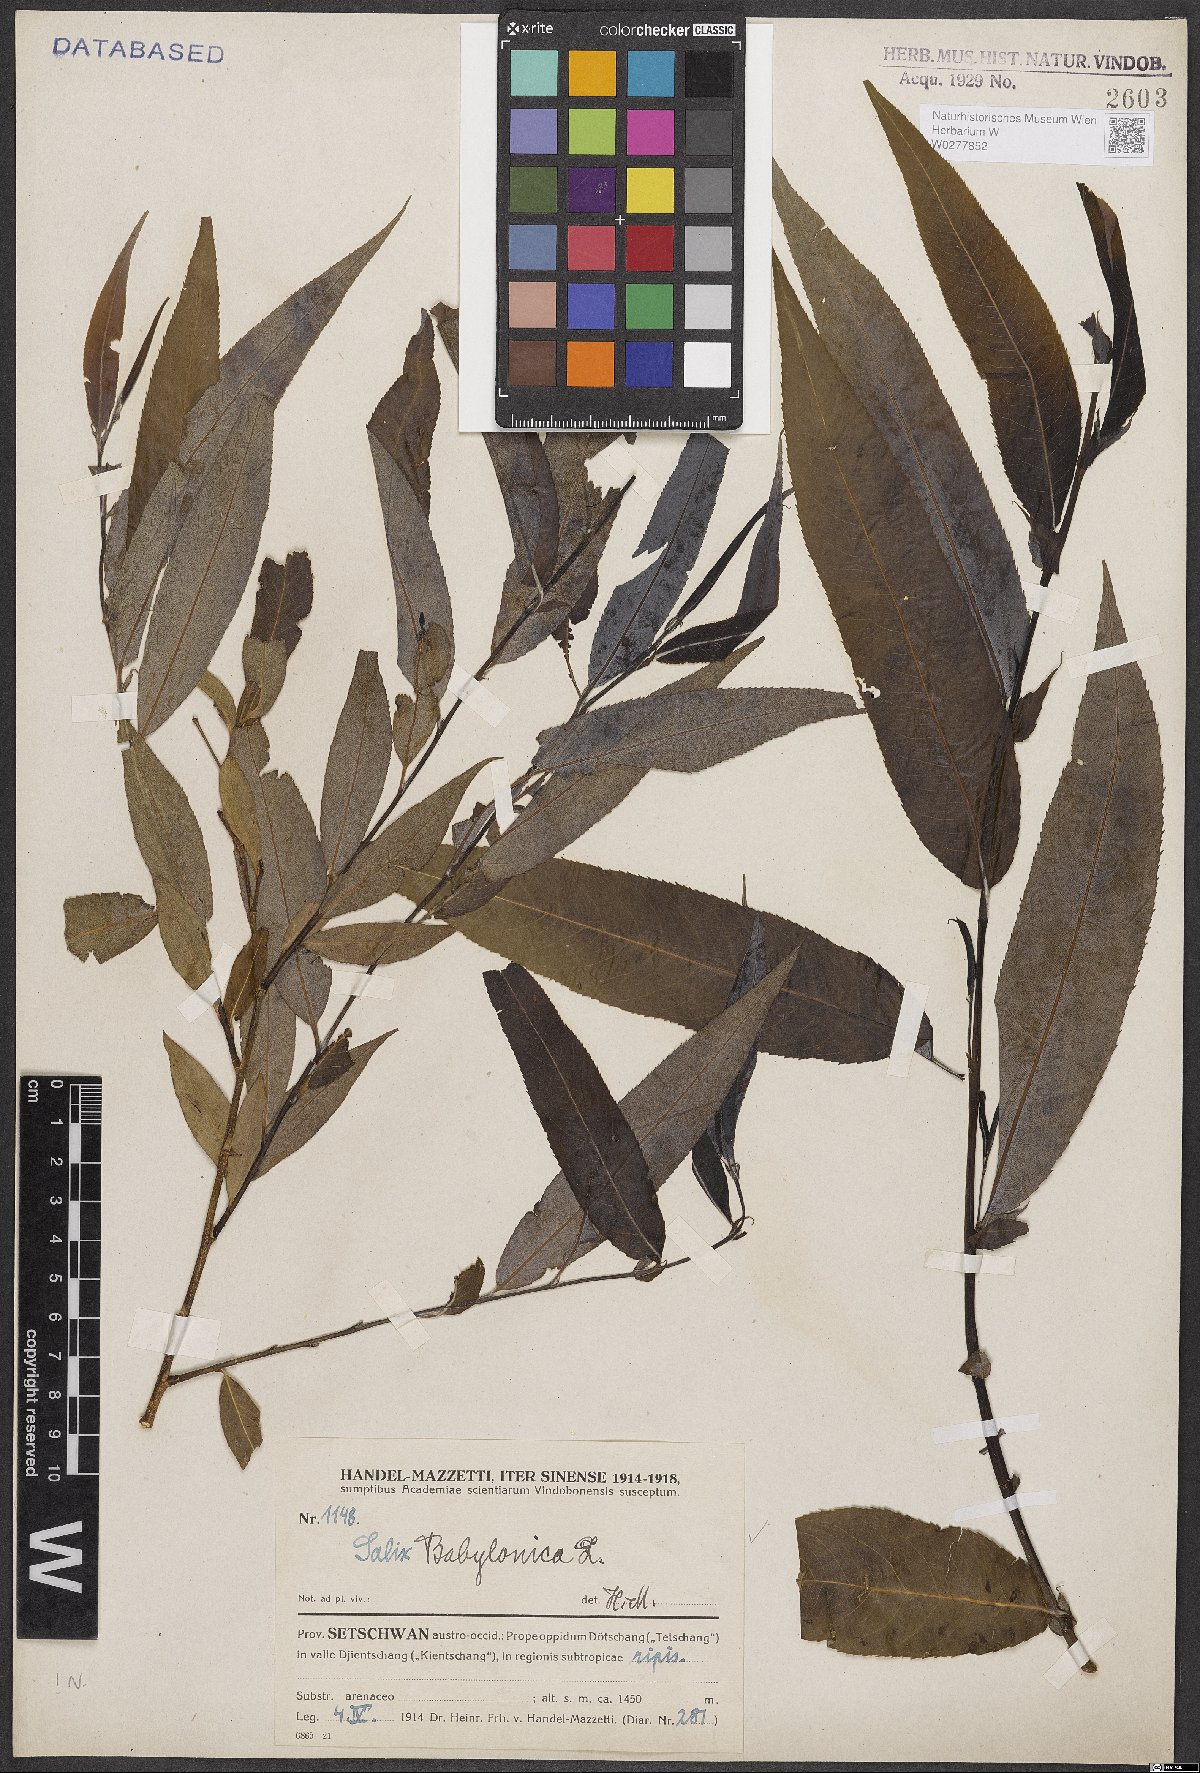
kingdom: Plantae
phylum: Tracheophyta
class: Magnoliopsida
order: Malpighiales
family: Salicaceae
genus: Salix
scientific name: Salix babylonica
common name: Weeping willow
